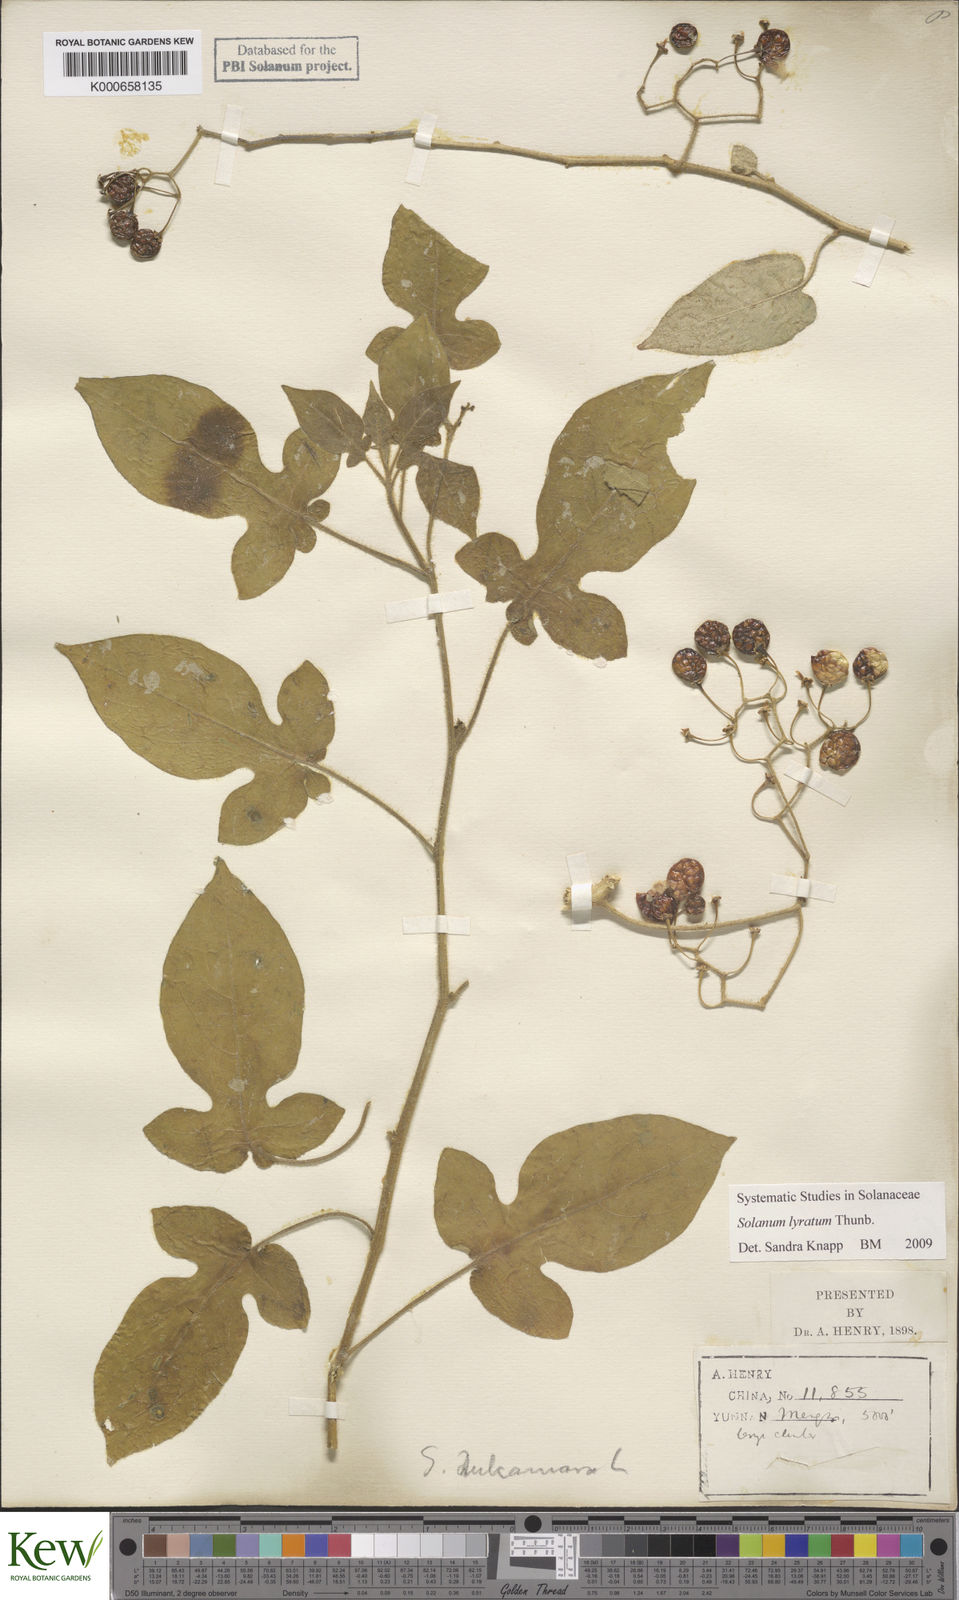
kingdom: Plantae
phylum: Tracheophyta
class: Magnoliopsida
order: Solanales
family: Solanaceae
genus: Solanum
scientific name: Solanum lyratum
